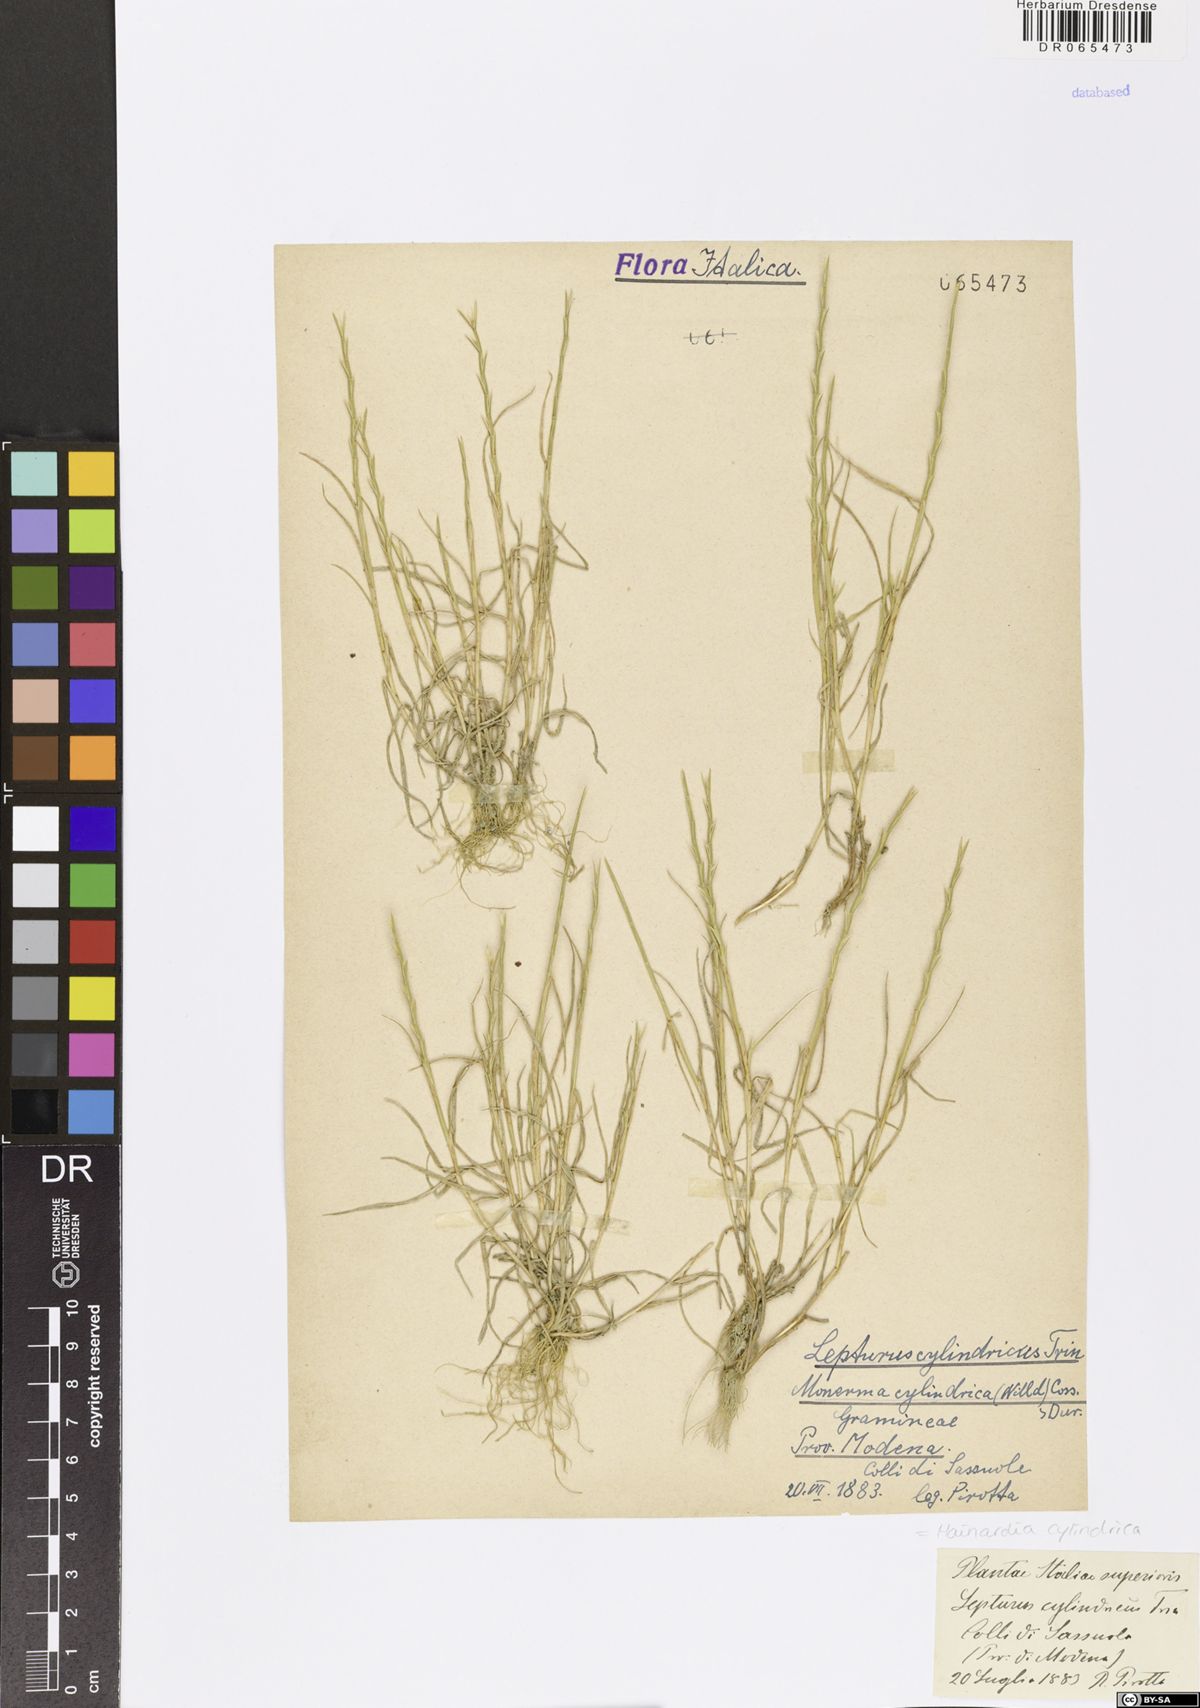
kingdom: Plantae
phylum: Tracheophyta
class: Liliopsida
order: Poales
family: Poaceae
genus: Parapholis
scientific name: Parapholis cylindrica
